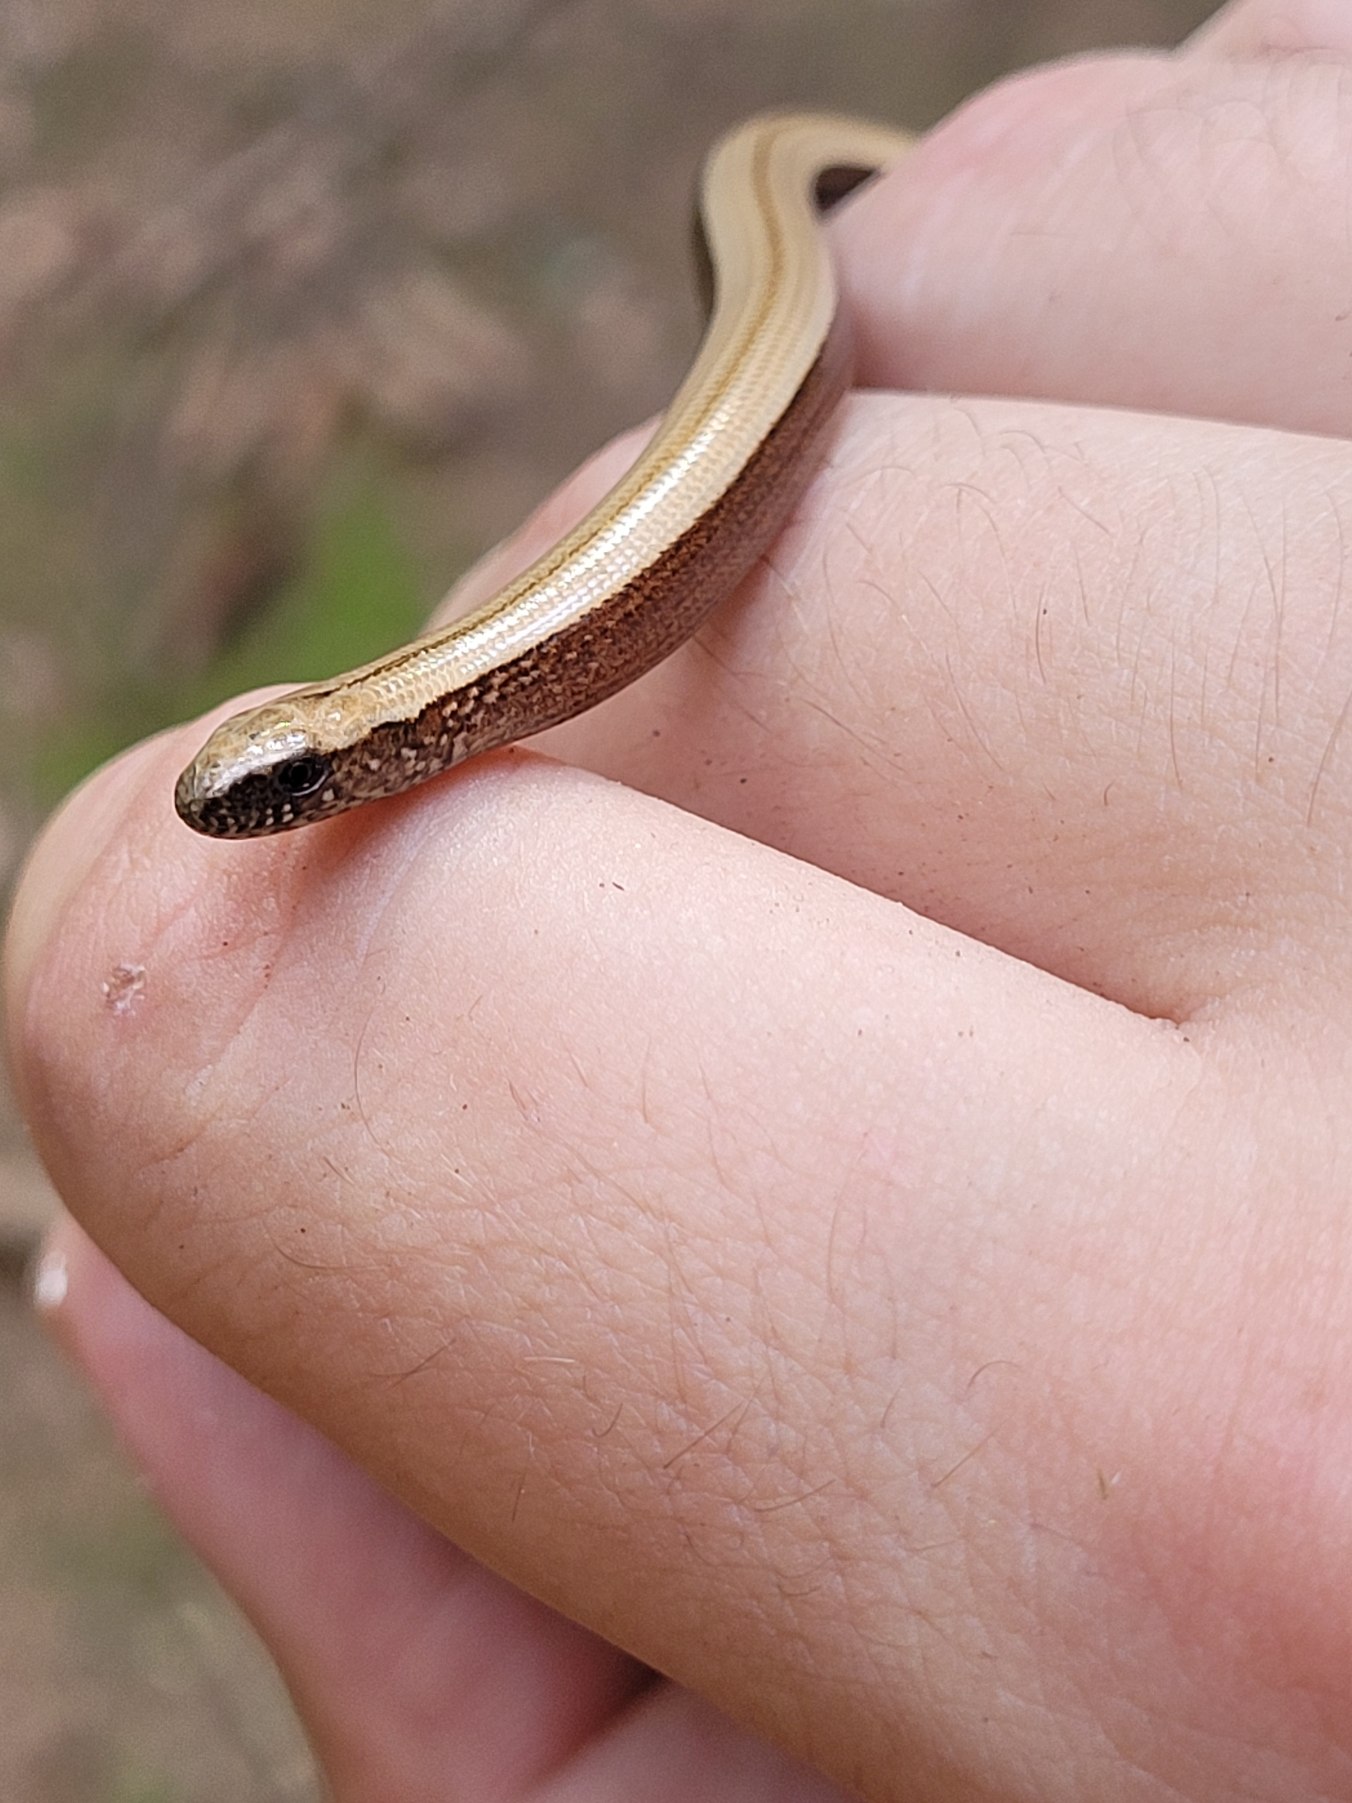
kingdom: Animalia
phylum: Chordata
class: Squamata
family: Anguidae
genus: Anguis
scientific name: Anguis fragilis
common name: Stålorm
